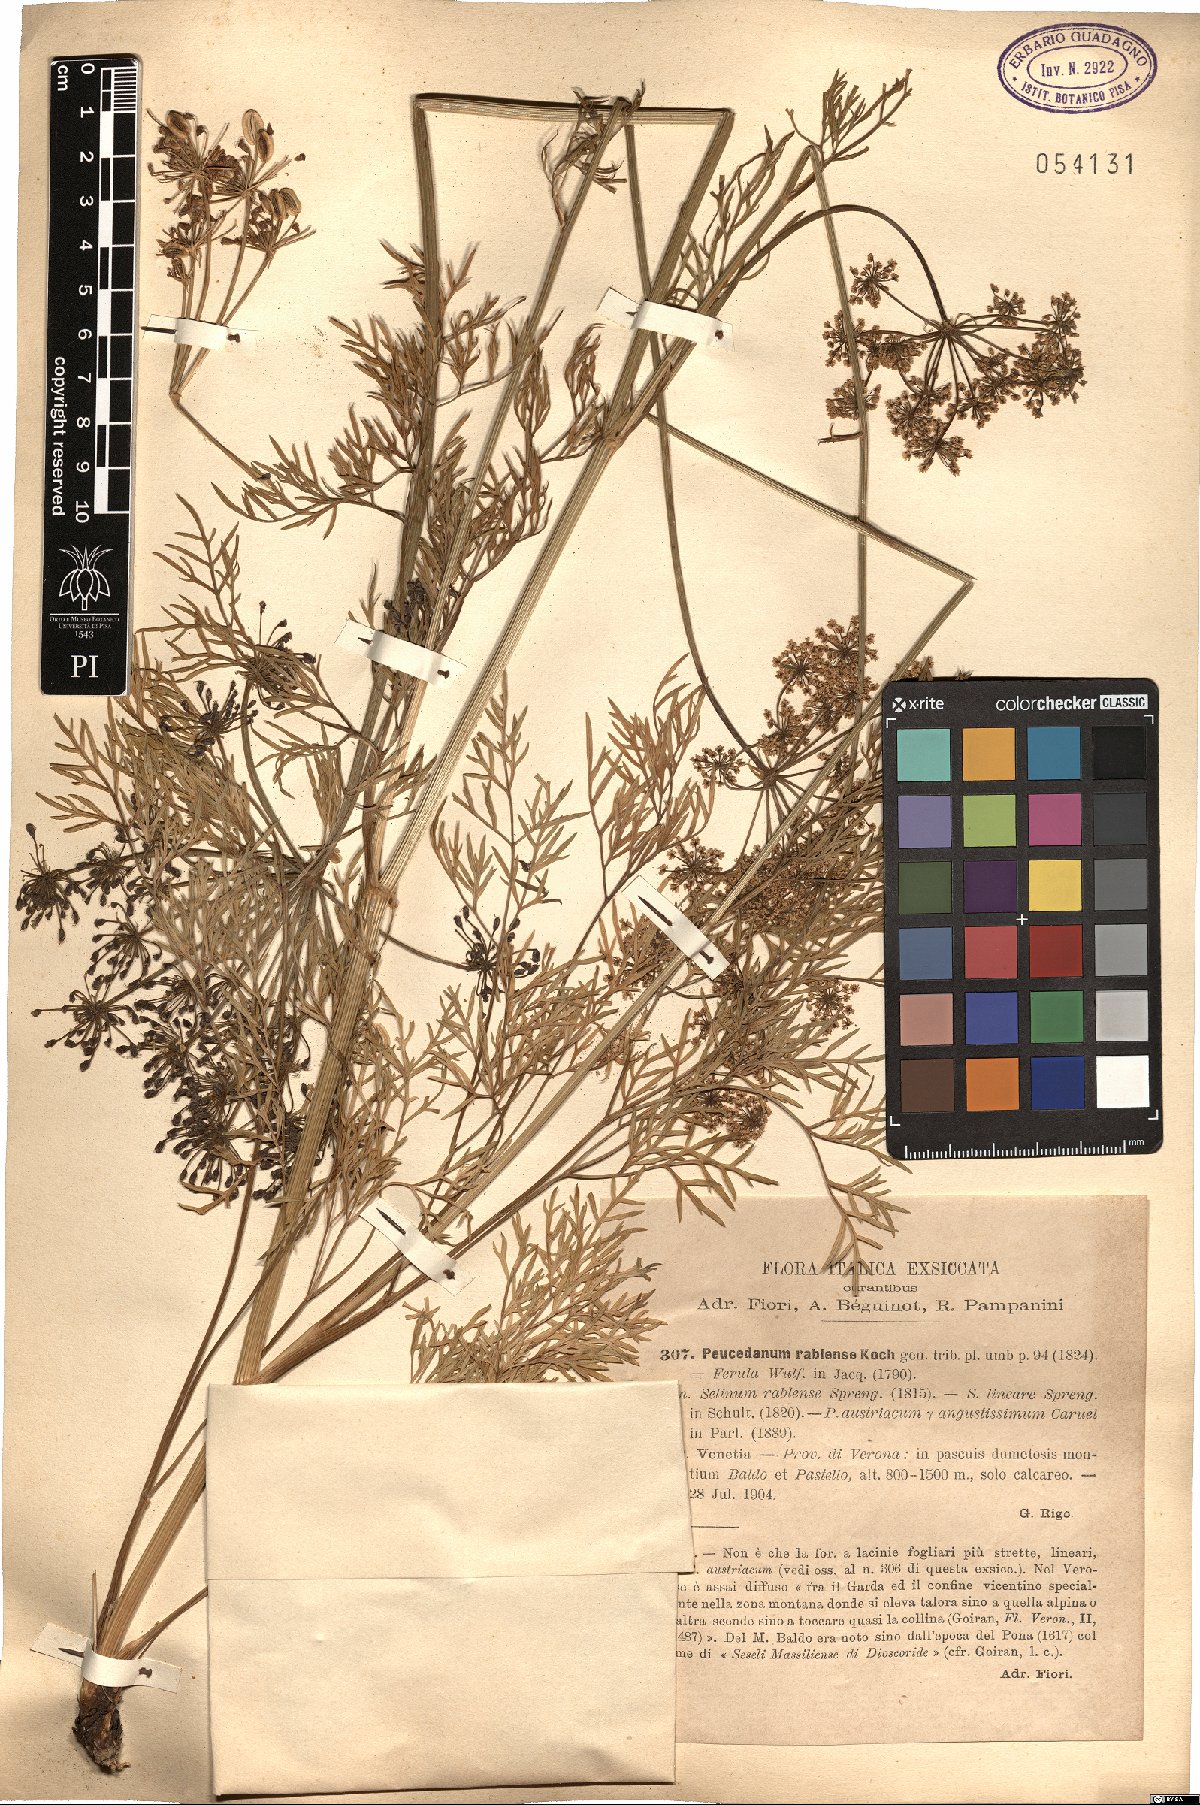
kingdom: Plantae
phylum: Tracheophyta
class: Magnoliopsida
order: Apiales
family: Apiaceae
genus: Peucedanum
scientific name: Peucedanum rablense
